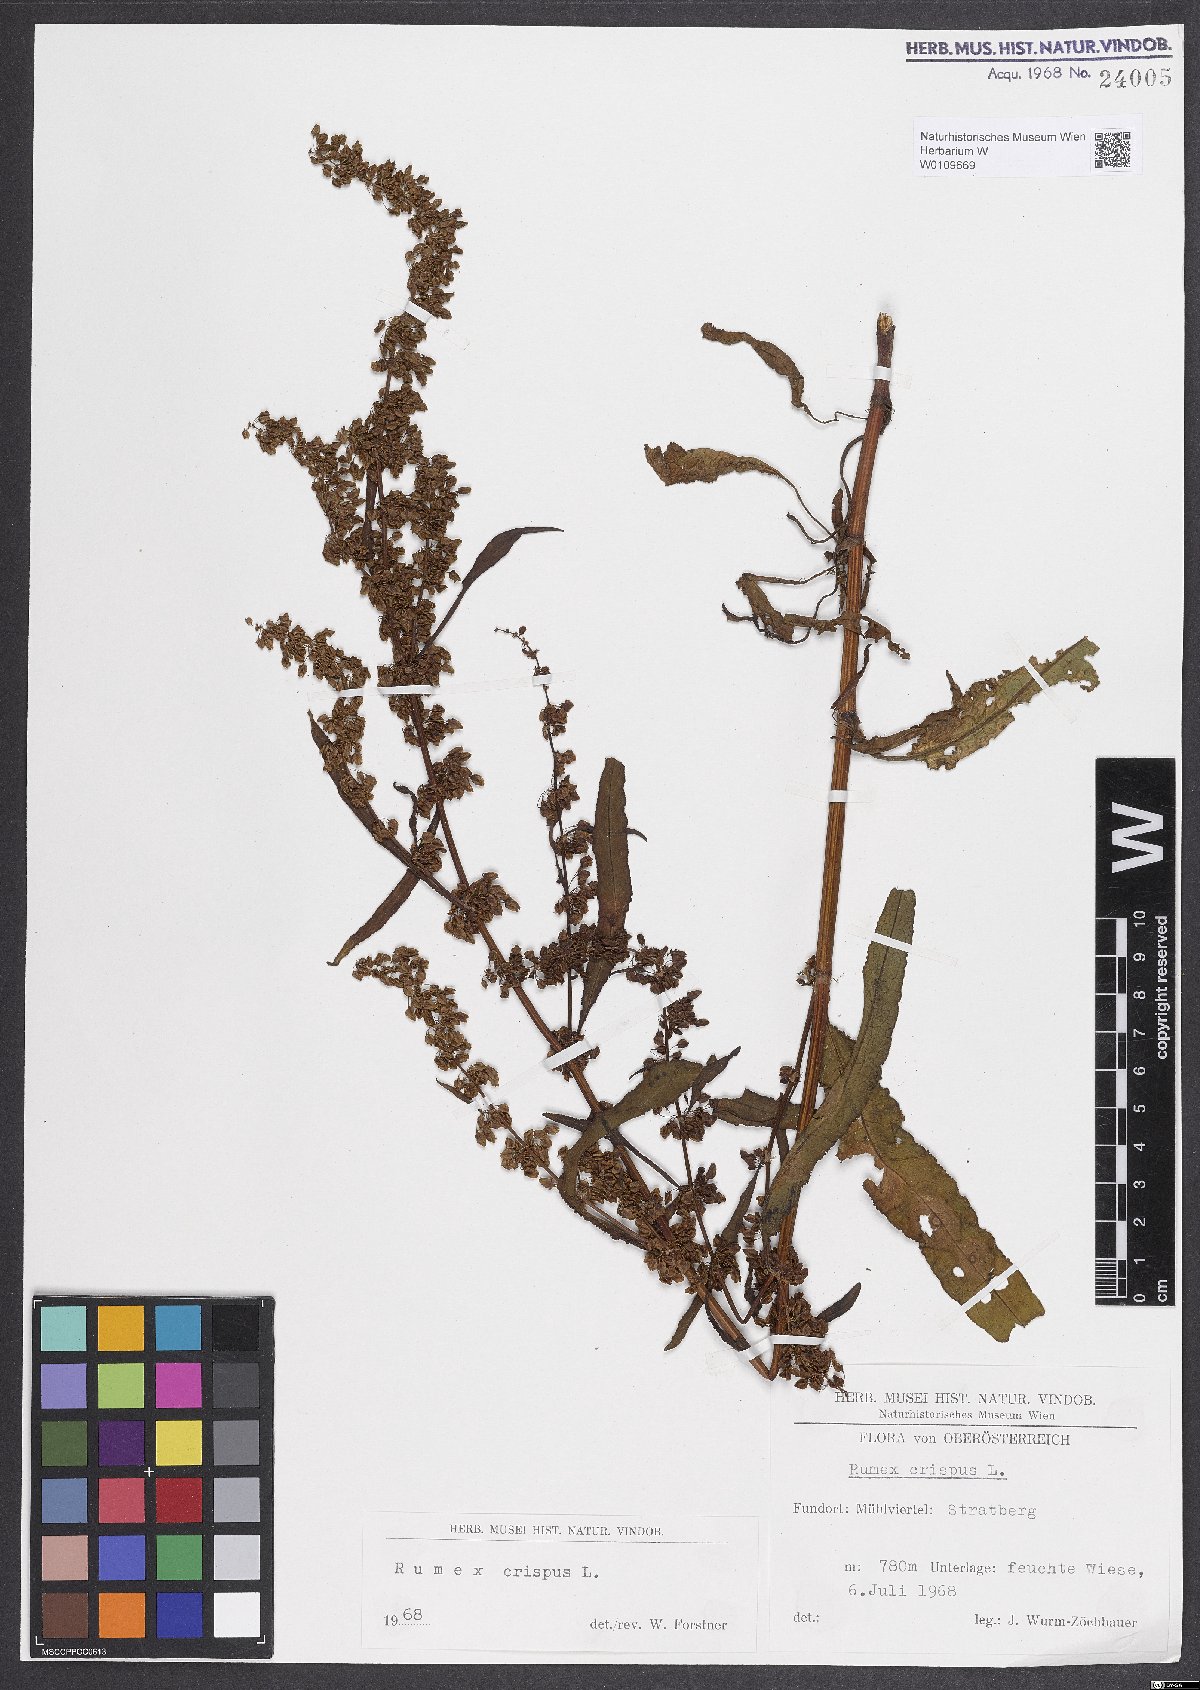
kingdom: Plantae
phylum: Tracheophyta
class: Magnoliopsida
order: Caryophyllales
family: Polygonaceae
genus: Rumex
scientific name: Rumex crispus
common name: Curled dock
